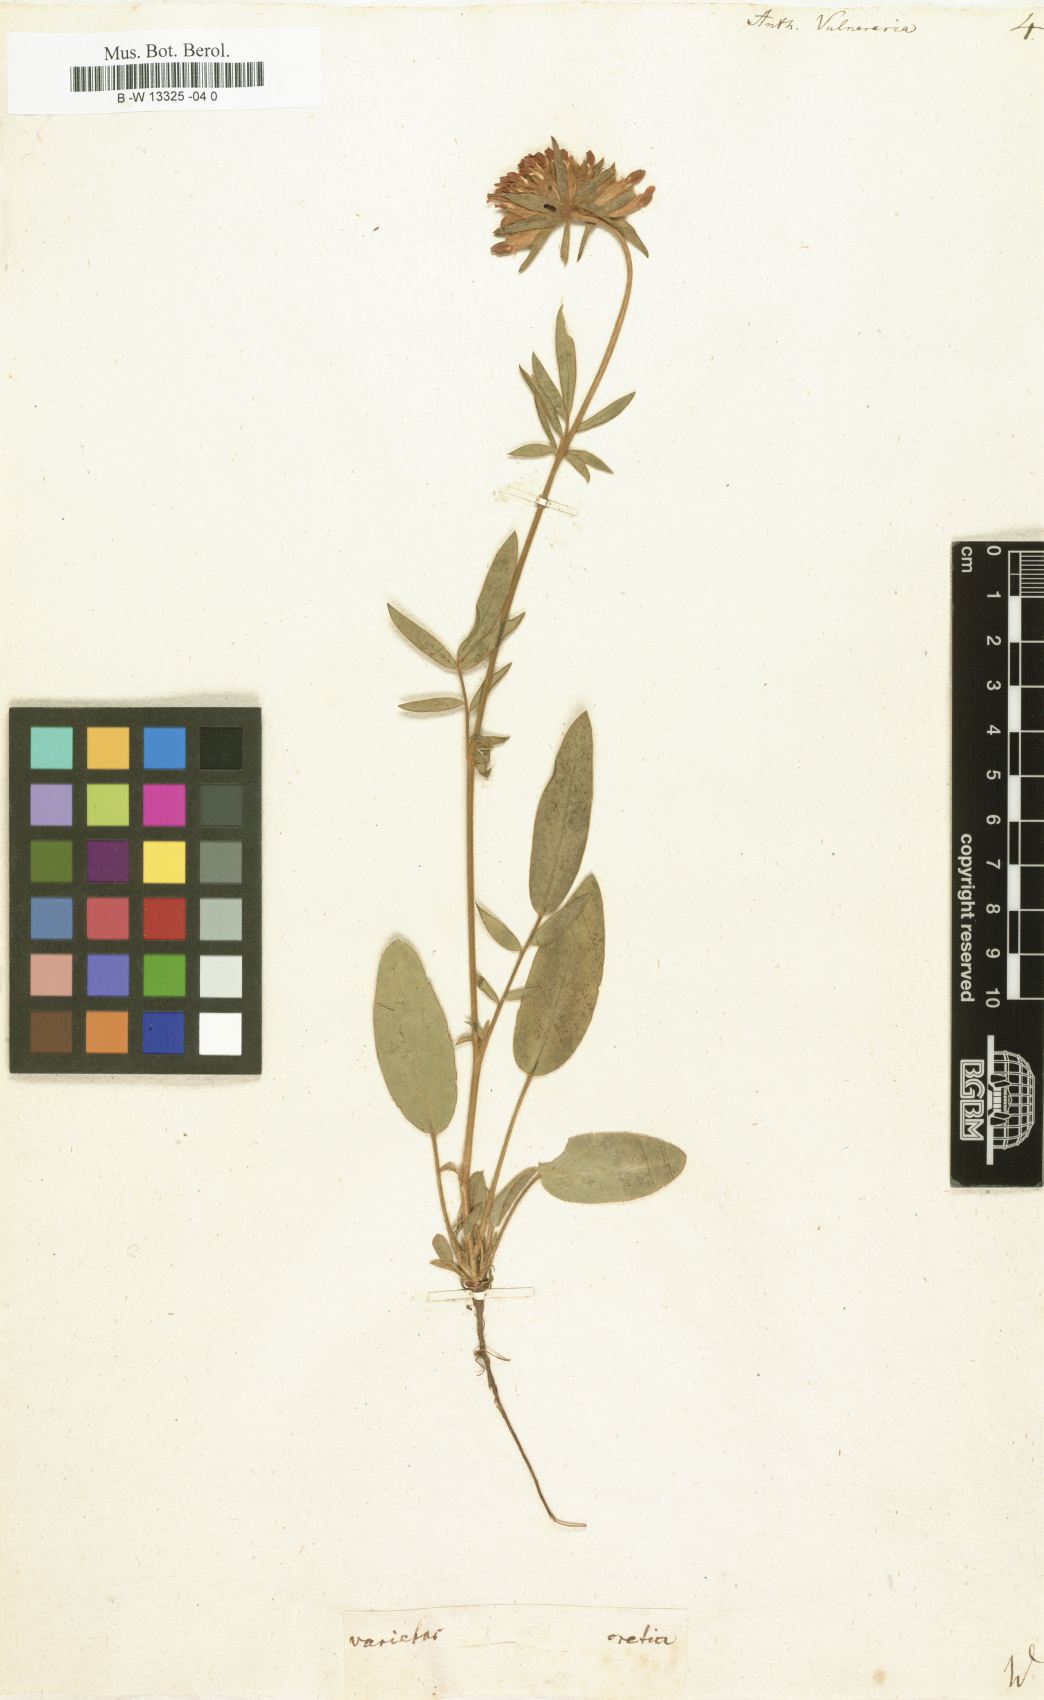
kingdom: Plantae
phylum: Tracheophyta
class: Magnoliopsida
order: Fabales
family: Fabaceae
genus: Anthyllis
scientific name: Anthyllis vulneraria
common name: Kidney vetch
